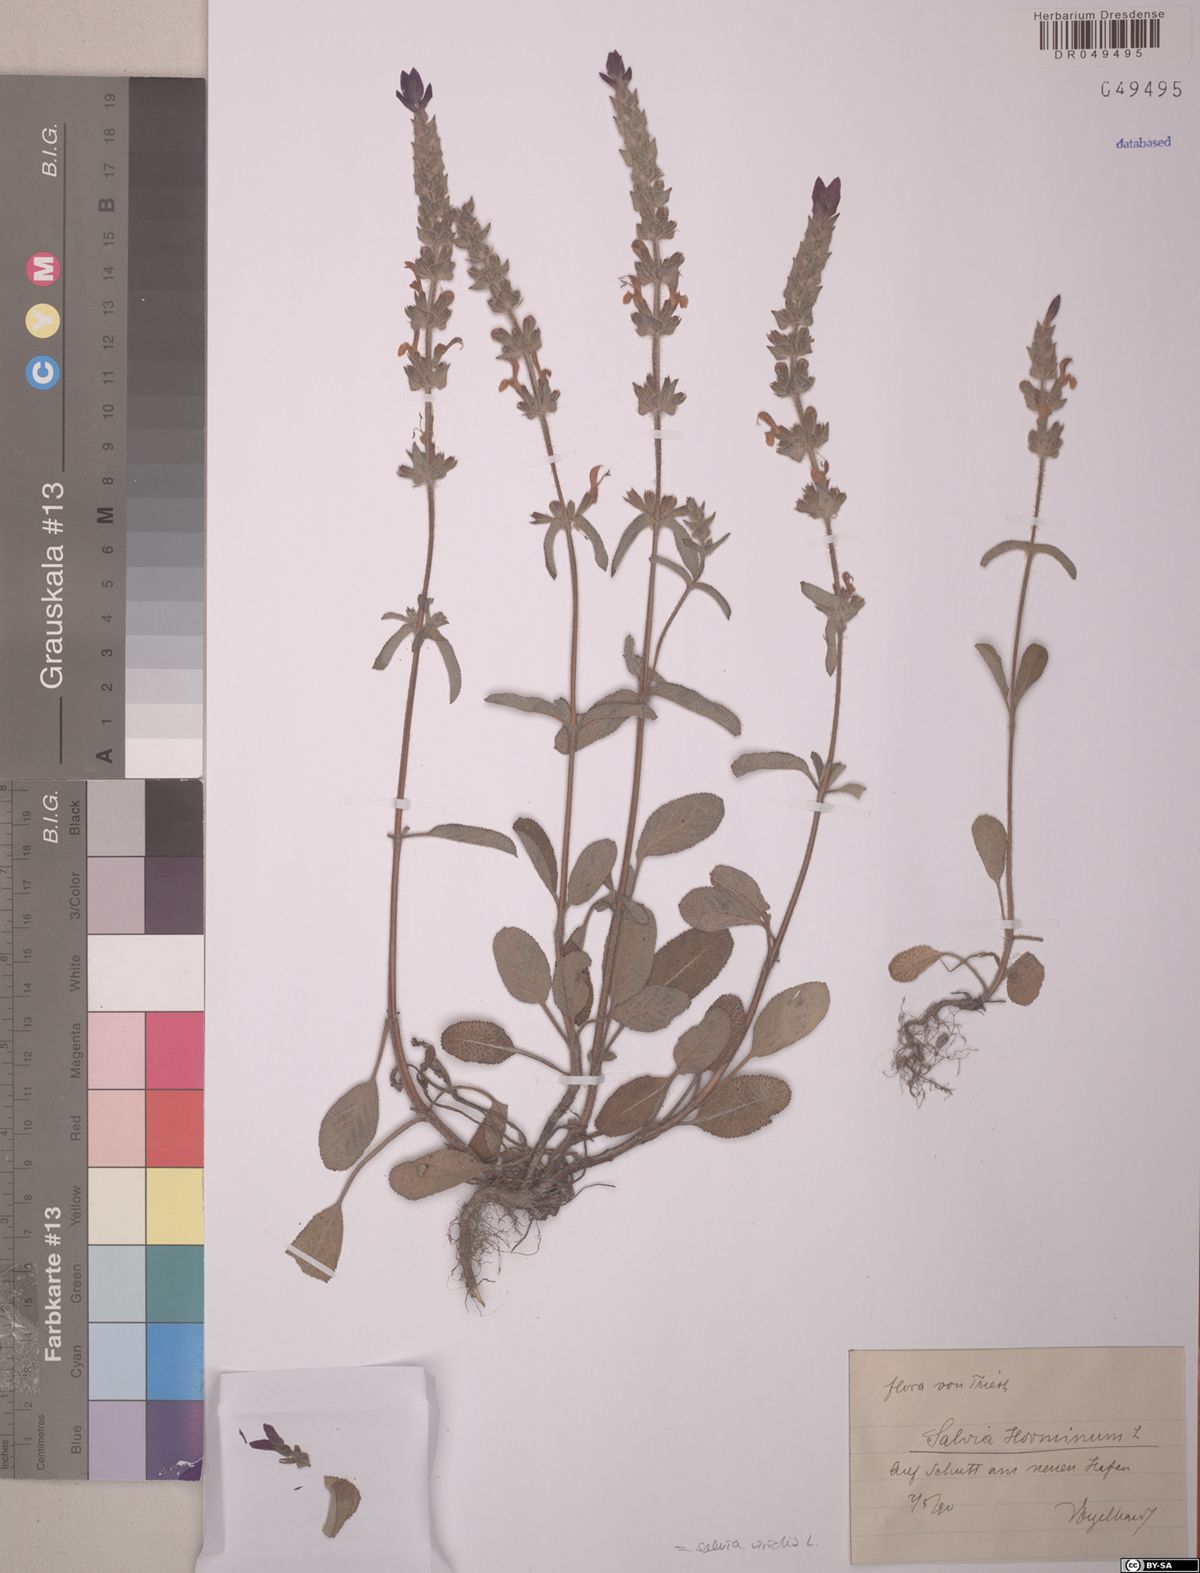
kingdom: Plantae
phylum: Tracheophyta
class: Magnoliopsida
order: Lamiales
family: Lamiaceae
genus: Salvia
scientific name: Salvia viridis
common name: Annual clary
